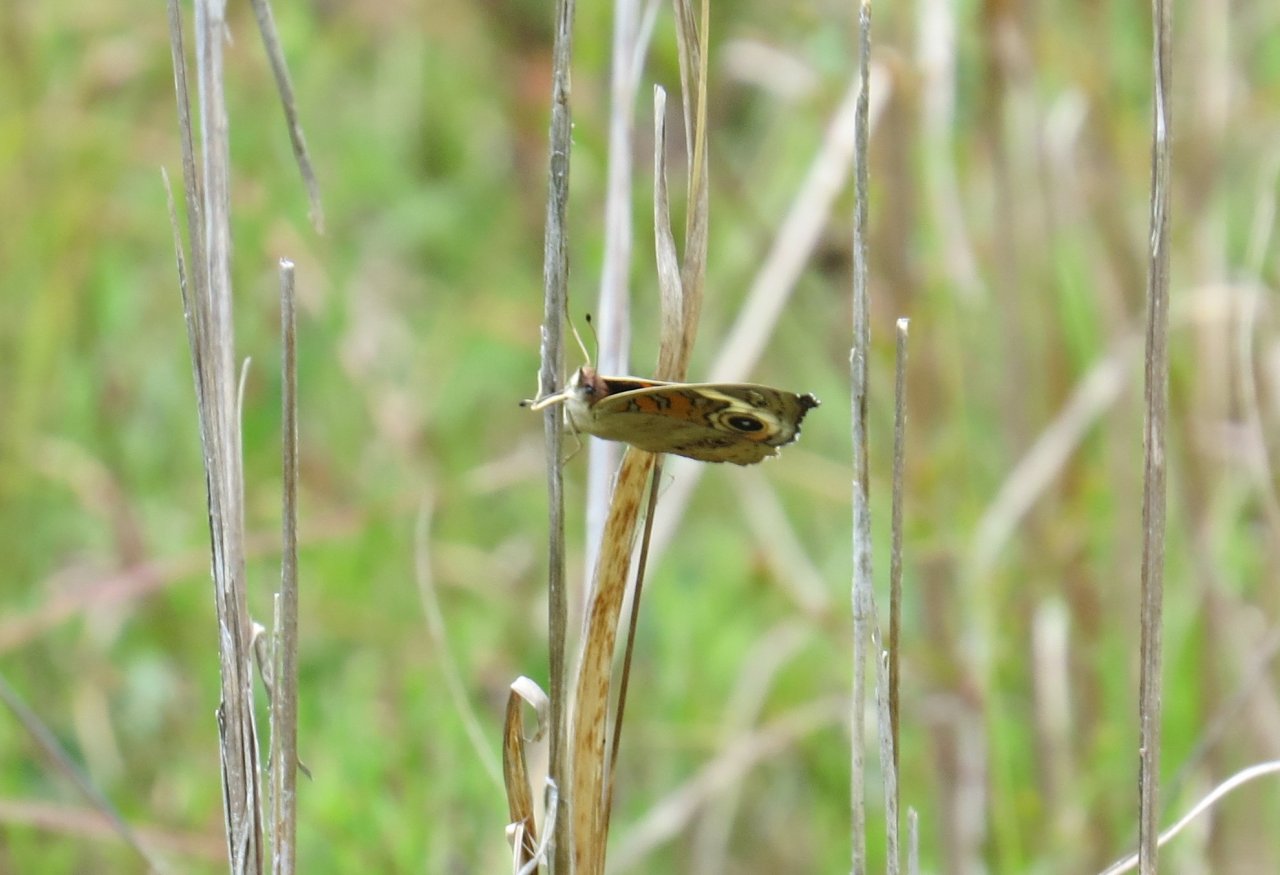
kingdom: Animalia
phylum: Arthropoda
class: Insecta
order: Lepidoptera
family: Nymphalidae
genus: Junonia
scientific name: Junonia coenia
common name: Common Buckeye
